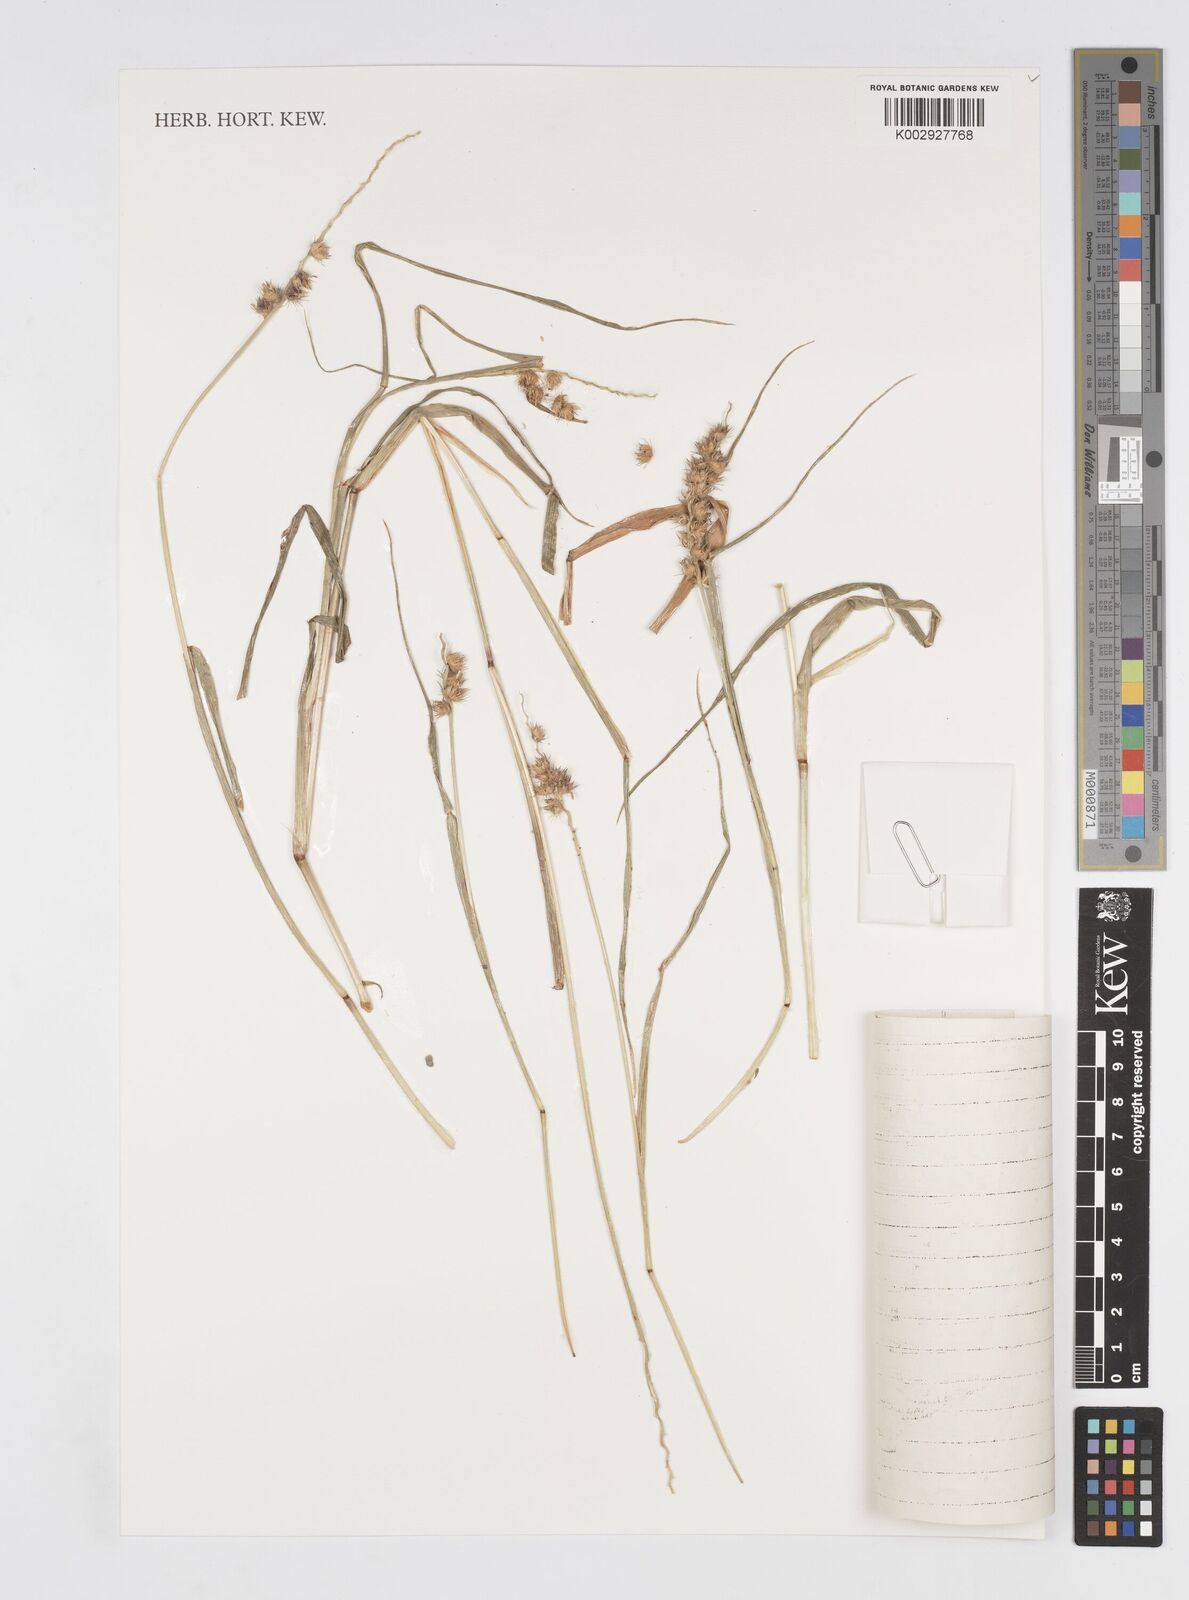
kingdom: Plantae
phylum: Tracheophyta
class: Liliopsida
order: Poales
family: Poaceae
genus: Cenchrus
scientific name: Cenchrus caliculatus
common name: Large bur grass
